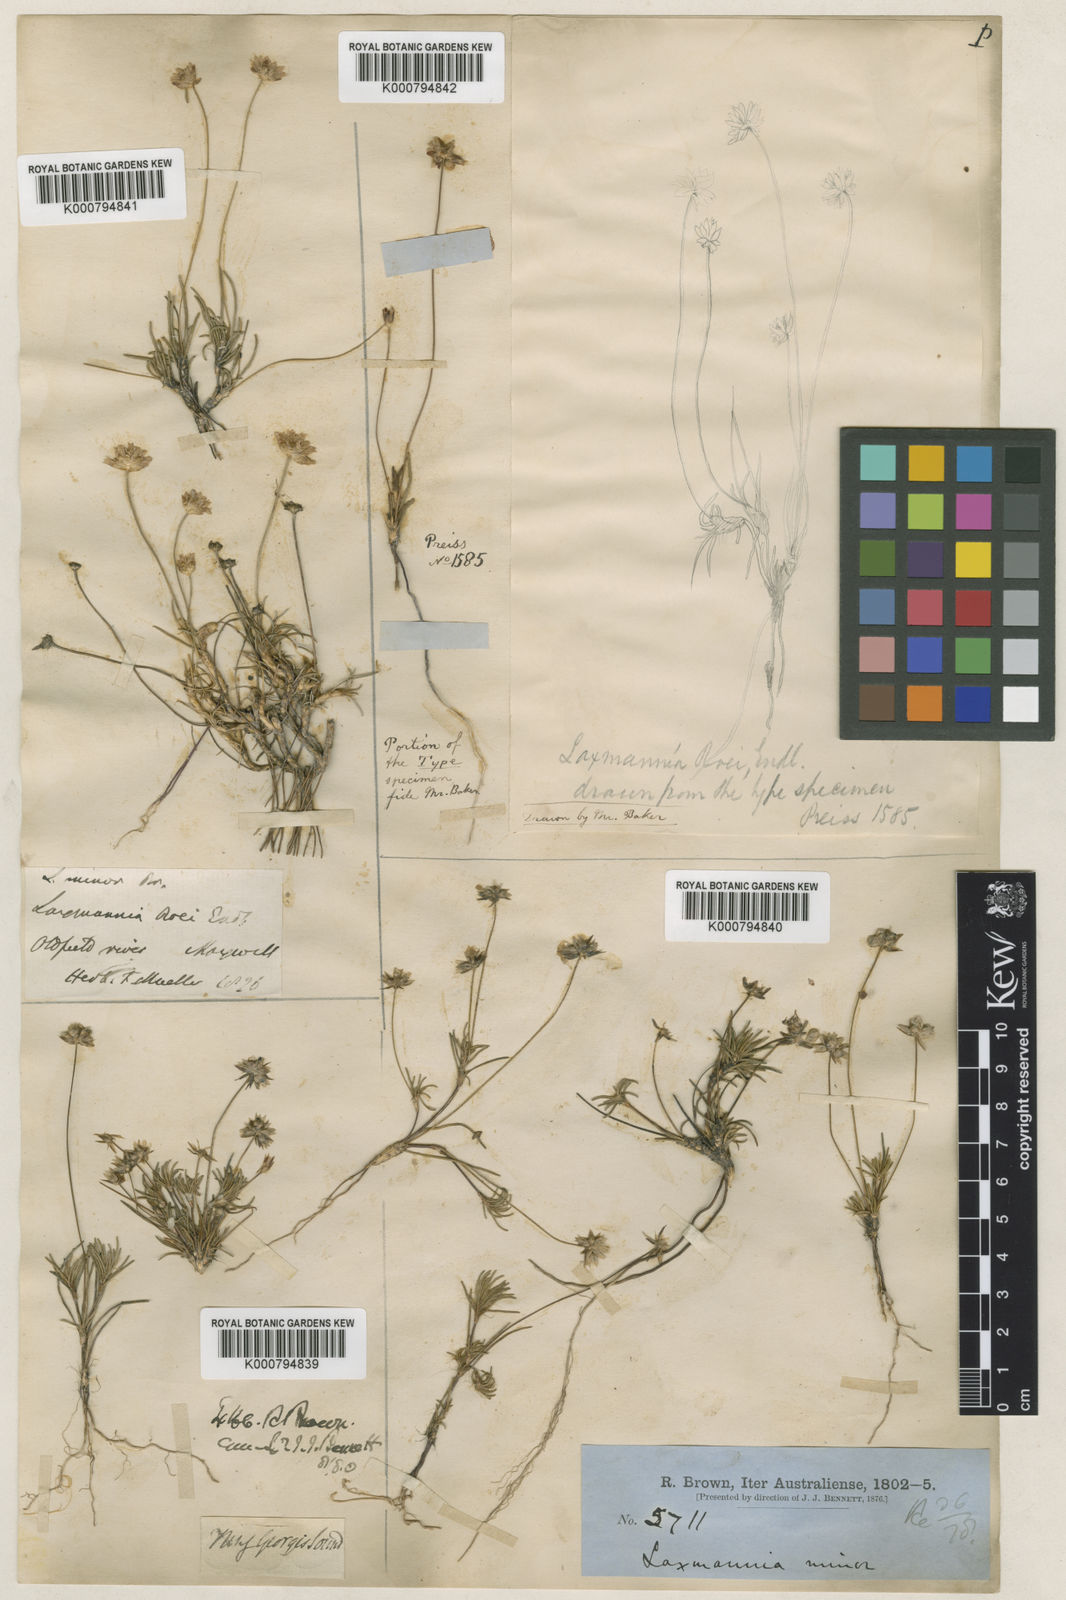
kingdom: Plantae
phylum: Tracheophyta
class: Liliopsida
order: Asparagales
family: Asparagaceae
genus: Laxmannia
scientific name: Laxmannia minor
